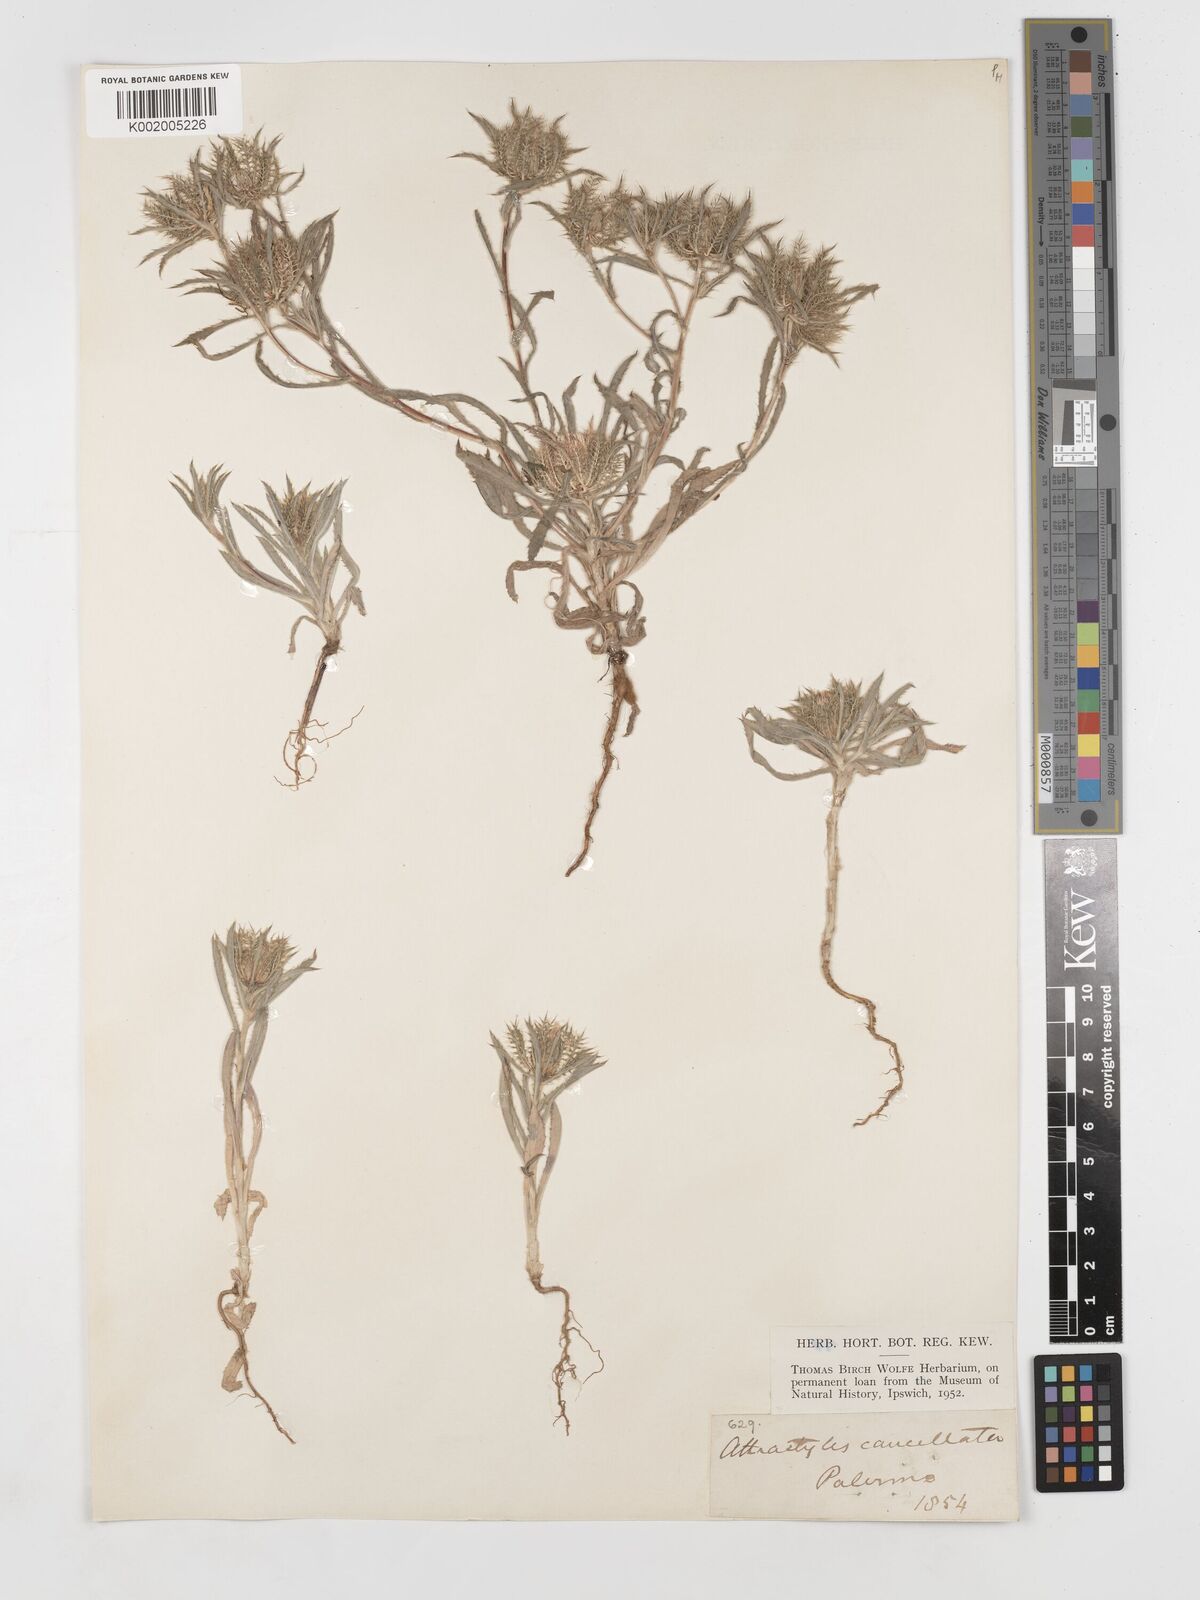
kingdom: Plantae
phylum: Tracheophyta
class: Magnoliopsida
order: Asterales
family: Asteraceae
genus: Atractylis
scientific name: Atractylis cancellata
